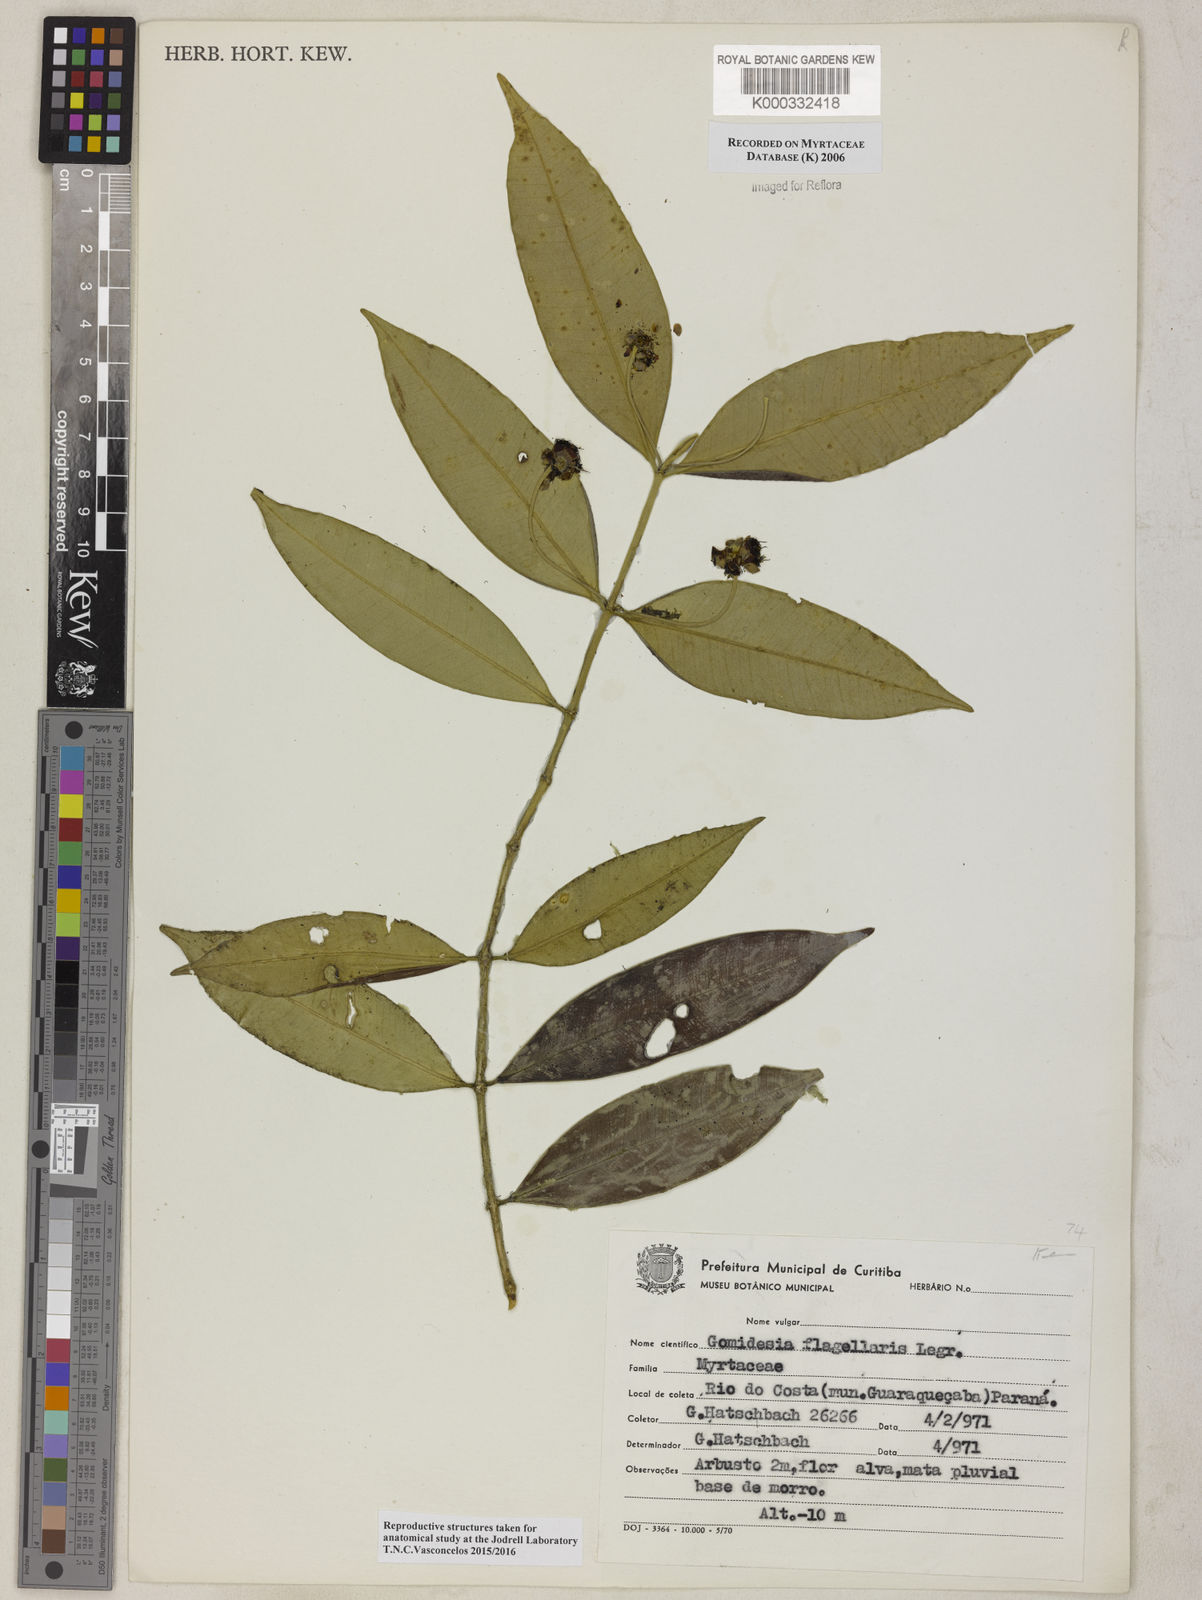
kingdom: Plantae
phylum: Tracheophyta
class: Magnoliopsida
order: Myrtales
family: Myrtaceae
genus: Myrcia
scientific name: Myrcia flagellaris
